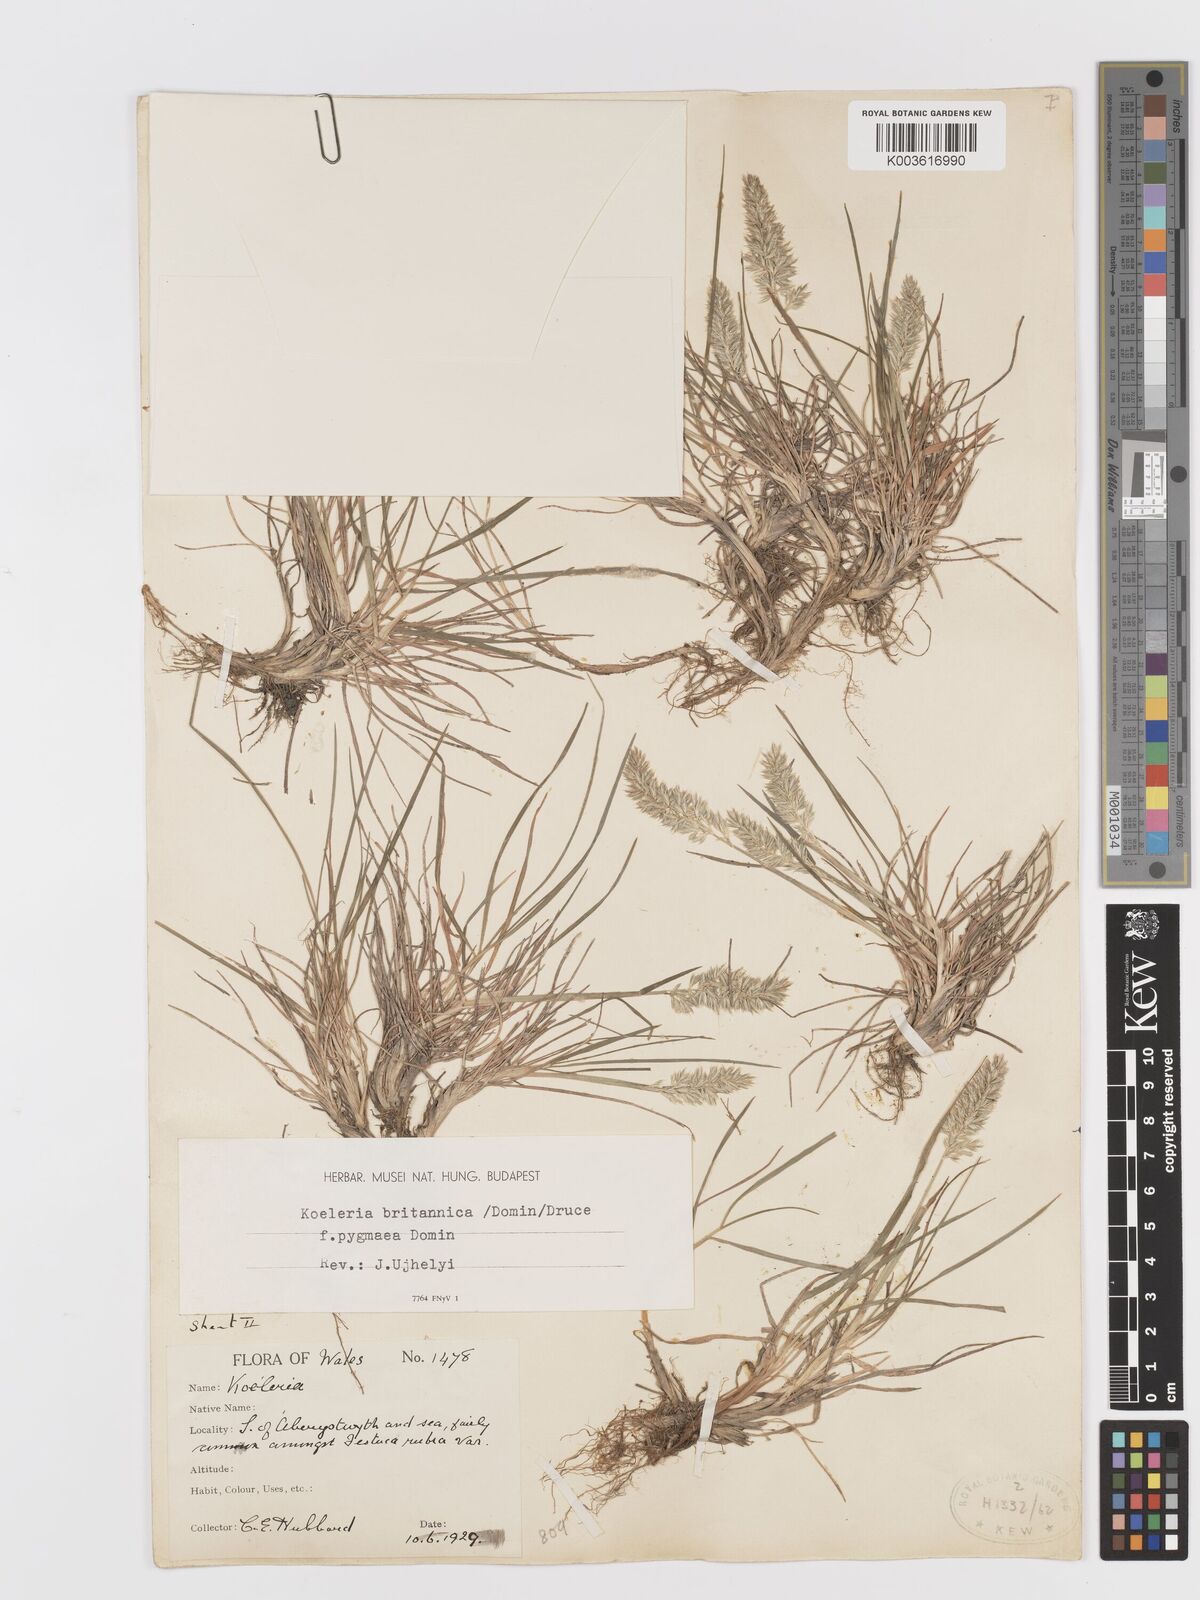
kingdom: Plantae
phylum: Tracheophyta
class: Liliopsida
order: Poales
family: Poaceae
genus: Koeleria
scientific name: Koeleria macrantha
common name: Crested hair-grass
